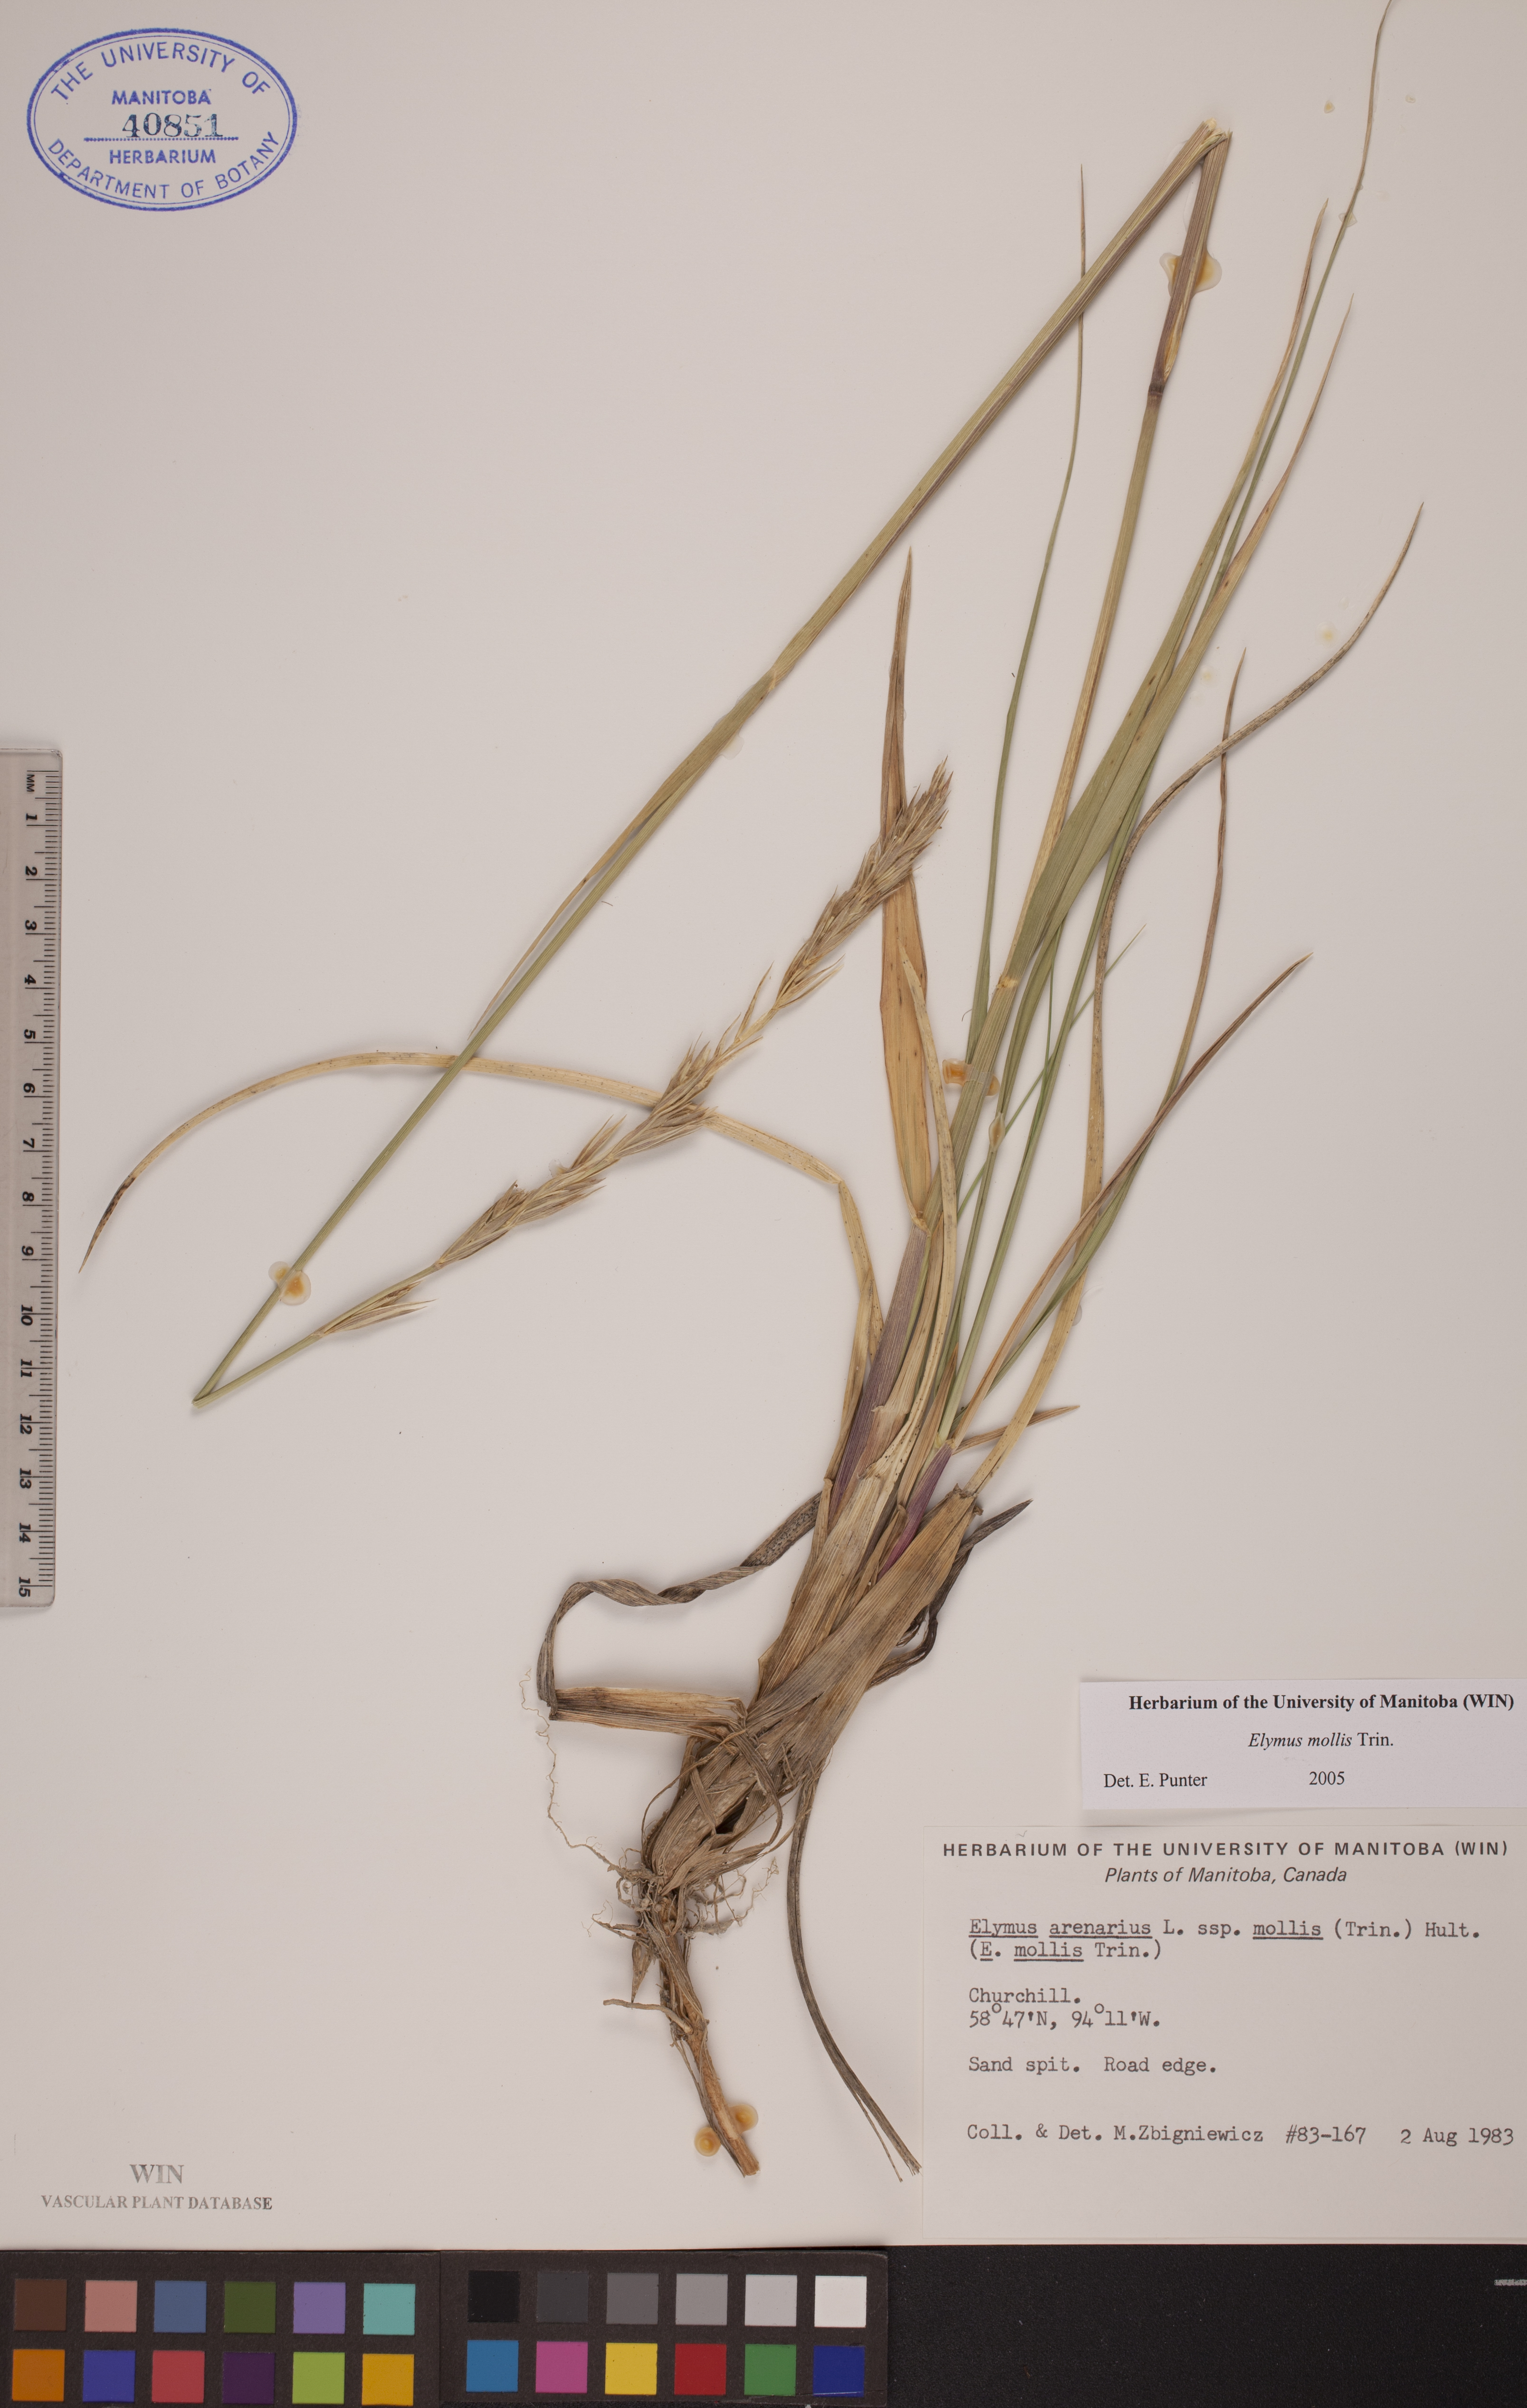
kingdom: Plantae
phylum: Tracheophyta
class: Liliopsida
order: Poales
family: Poaceae
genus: Leymus
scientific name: Leymus mollis
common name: American dune grass
